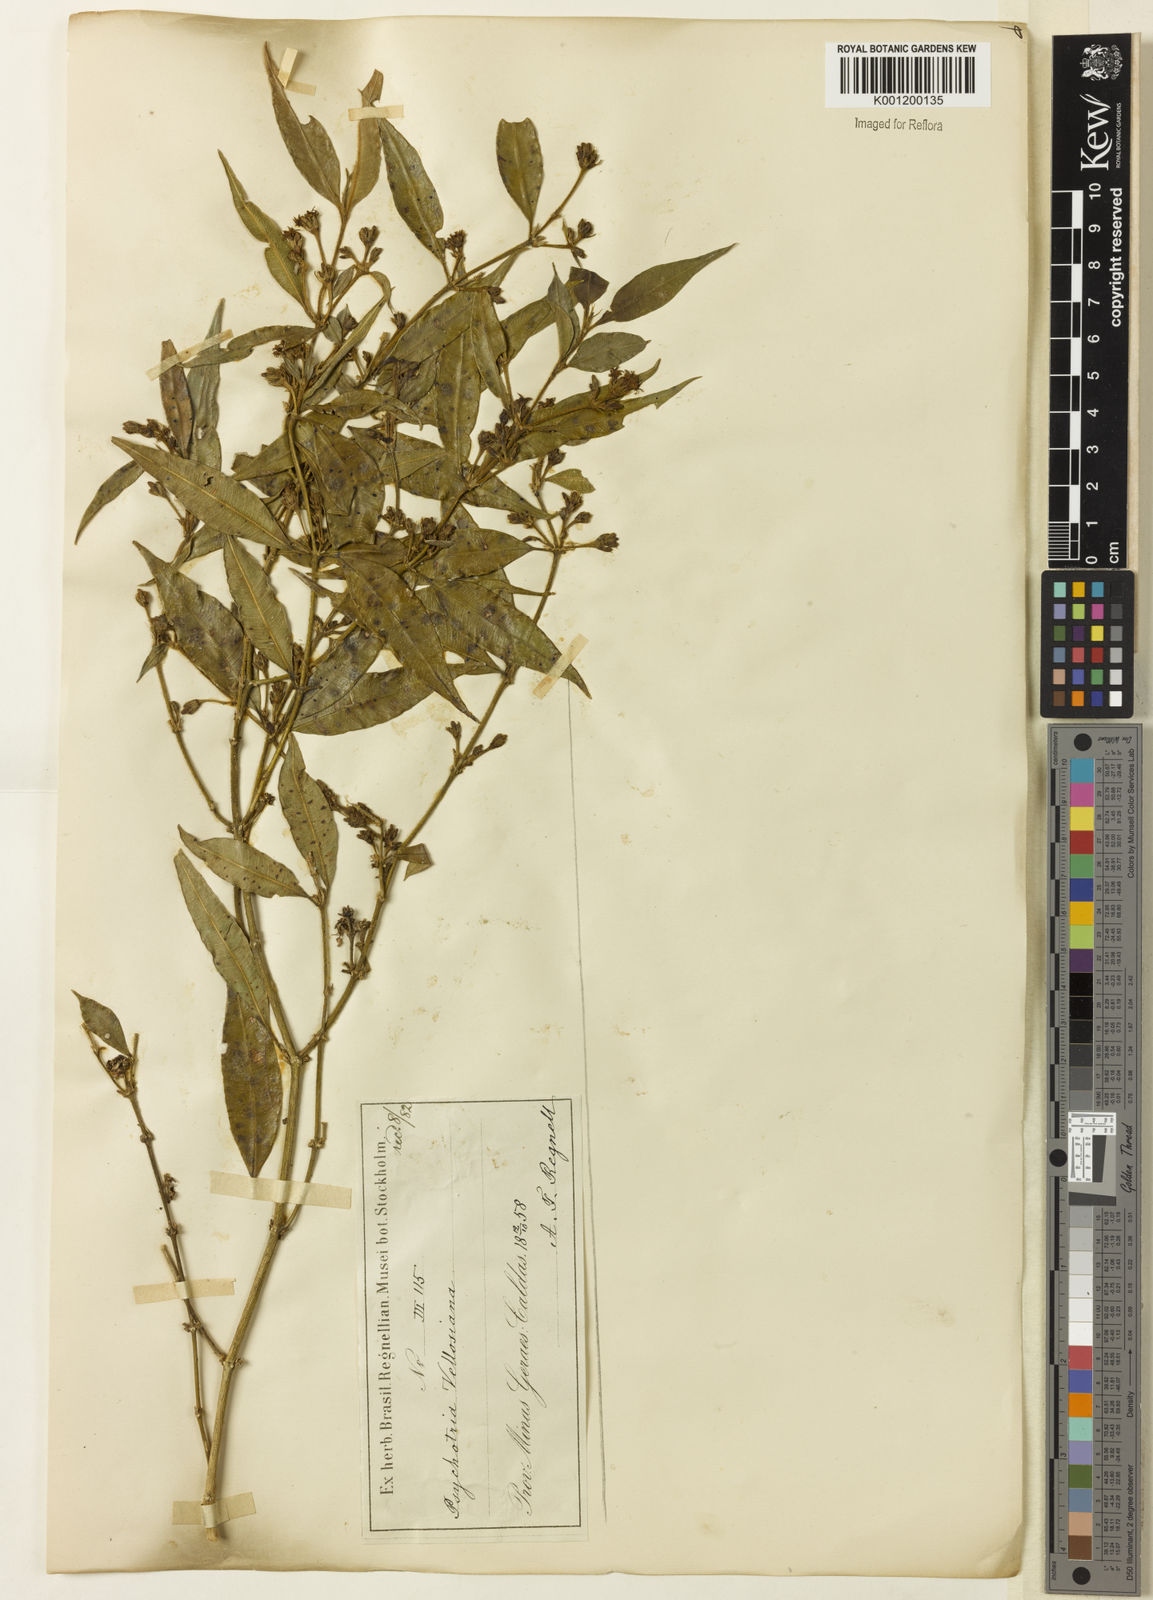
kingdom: Plantae
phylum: Tracheophyta
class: Magnoliopsida
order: Gentianales
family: Rubiaceae
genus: Rudgea
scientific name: Rudgea sessilis
